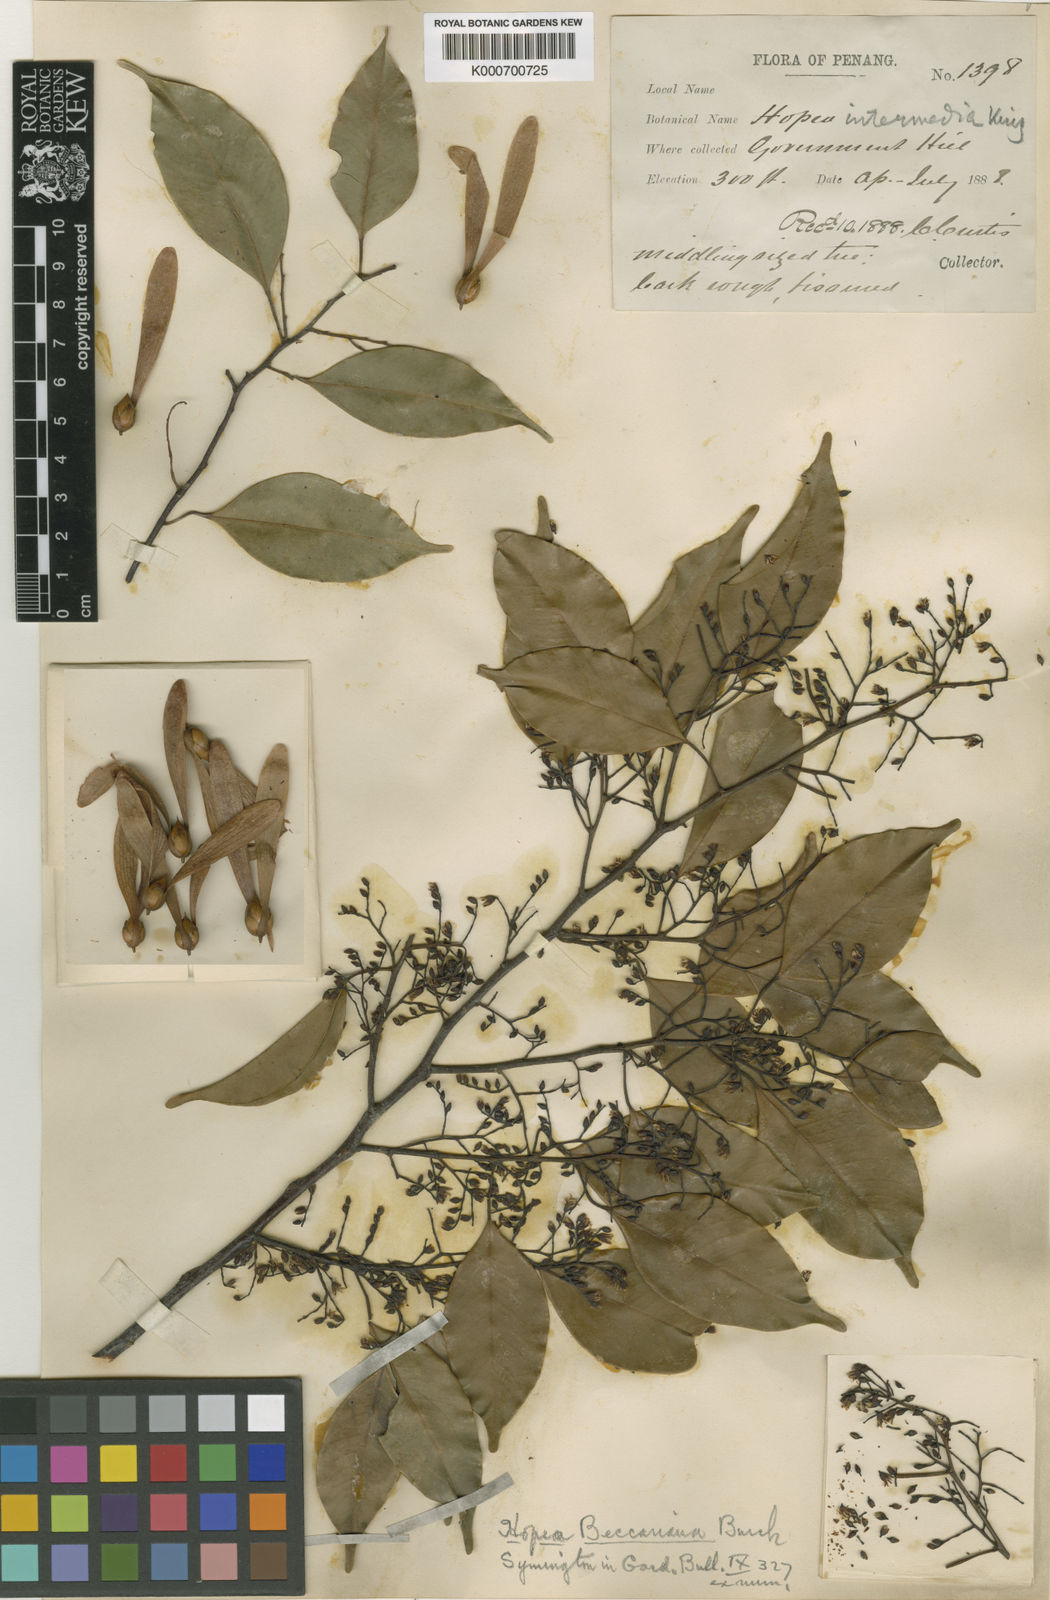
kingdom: Plantae
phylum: Tracheophyta
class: Magnoliopsida
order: Malvales
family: Dipterocarpaceae
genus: Hopea
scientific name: Hopea beccariana
